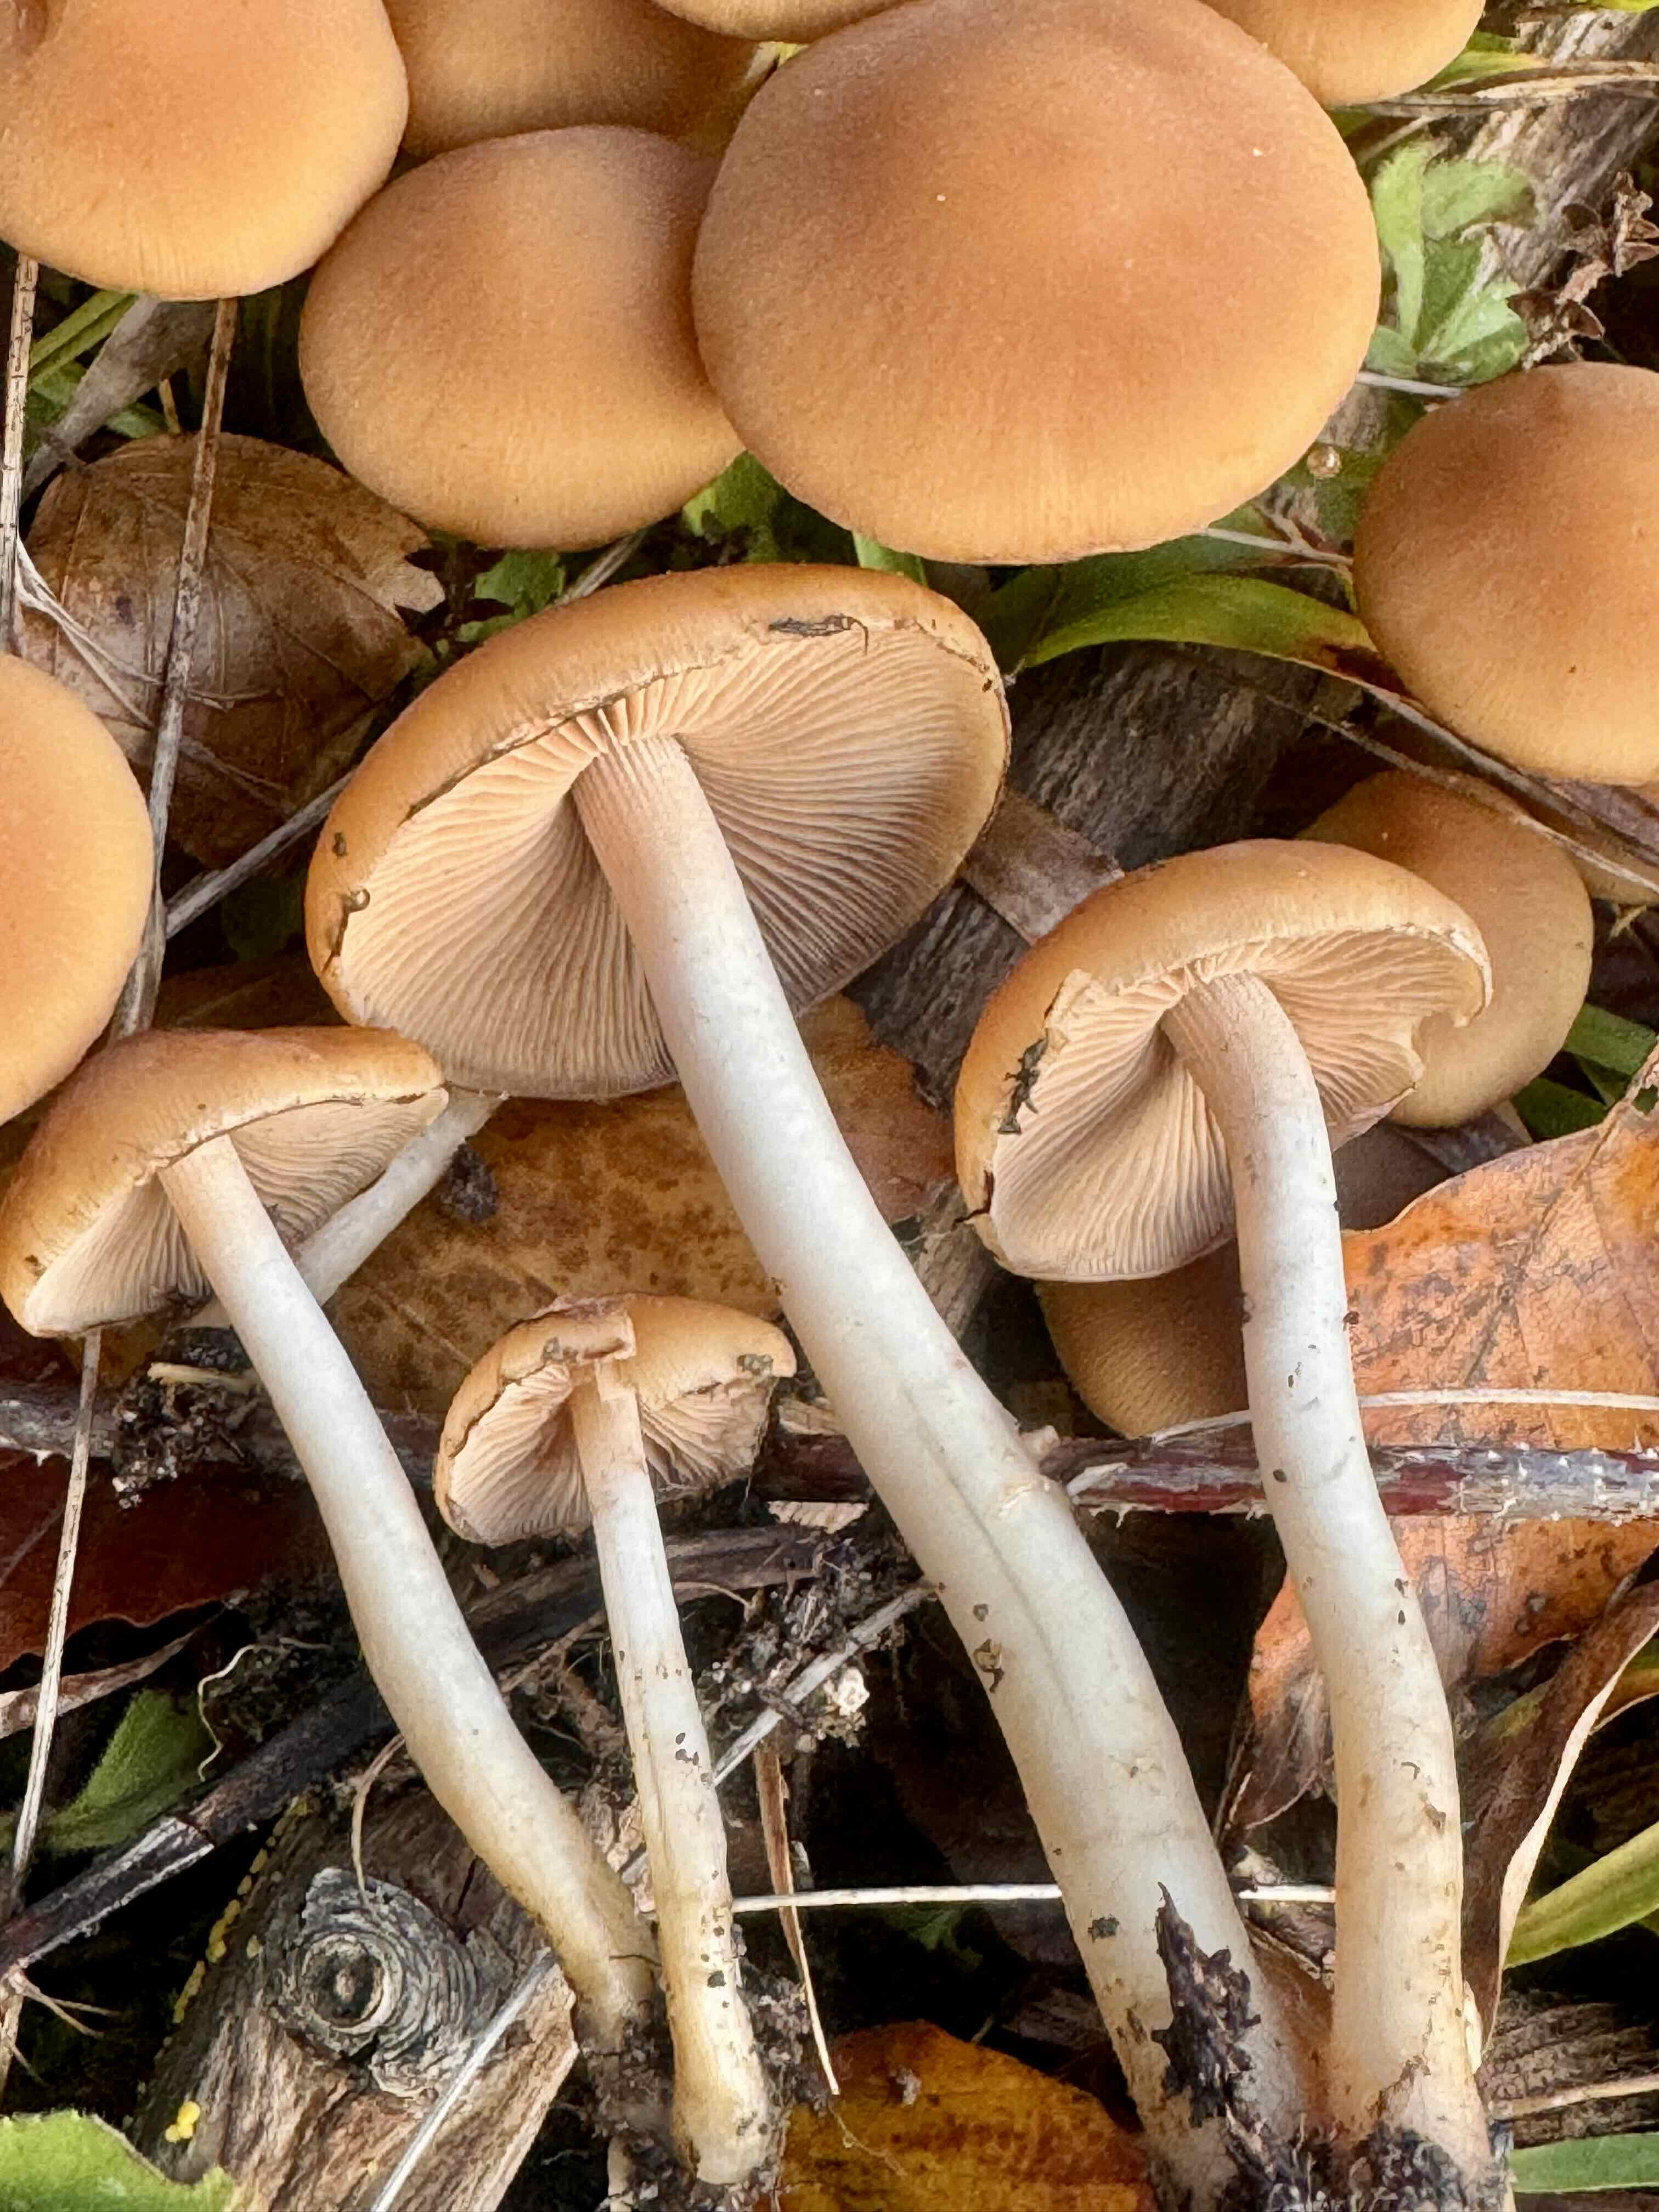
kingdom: Fungi
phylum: Basidiomycota
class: Agaricomycetes
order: Agaricales
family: Psathyrellaceae
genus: Psathyrella
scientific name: Psathyrella piluliformis
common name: lysstokket mørkhat
